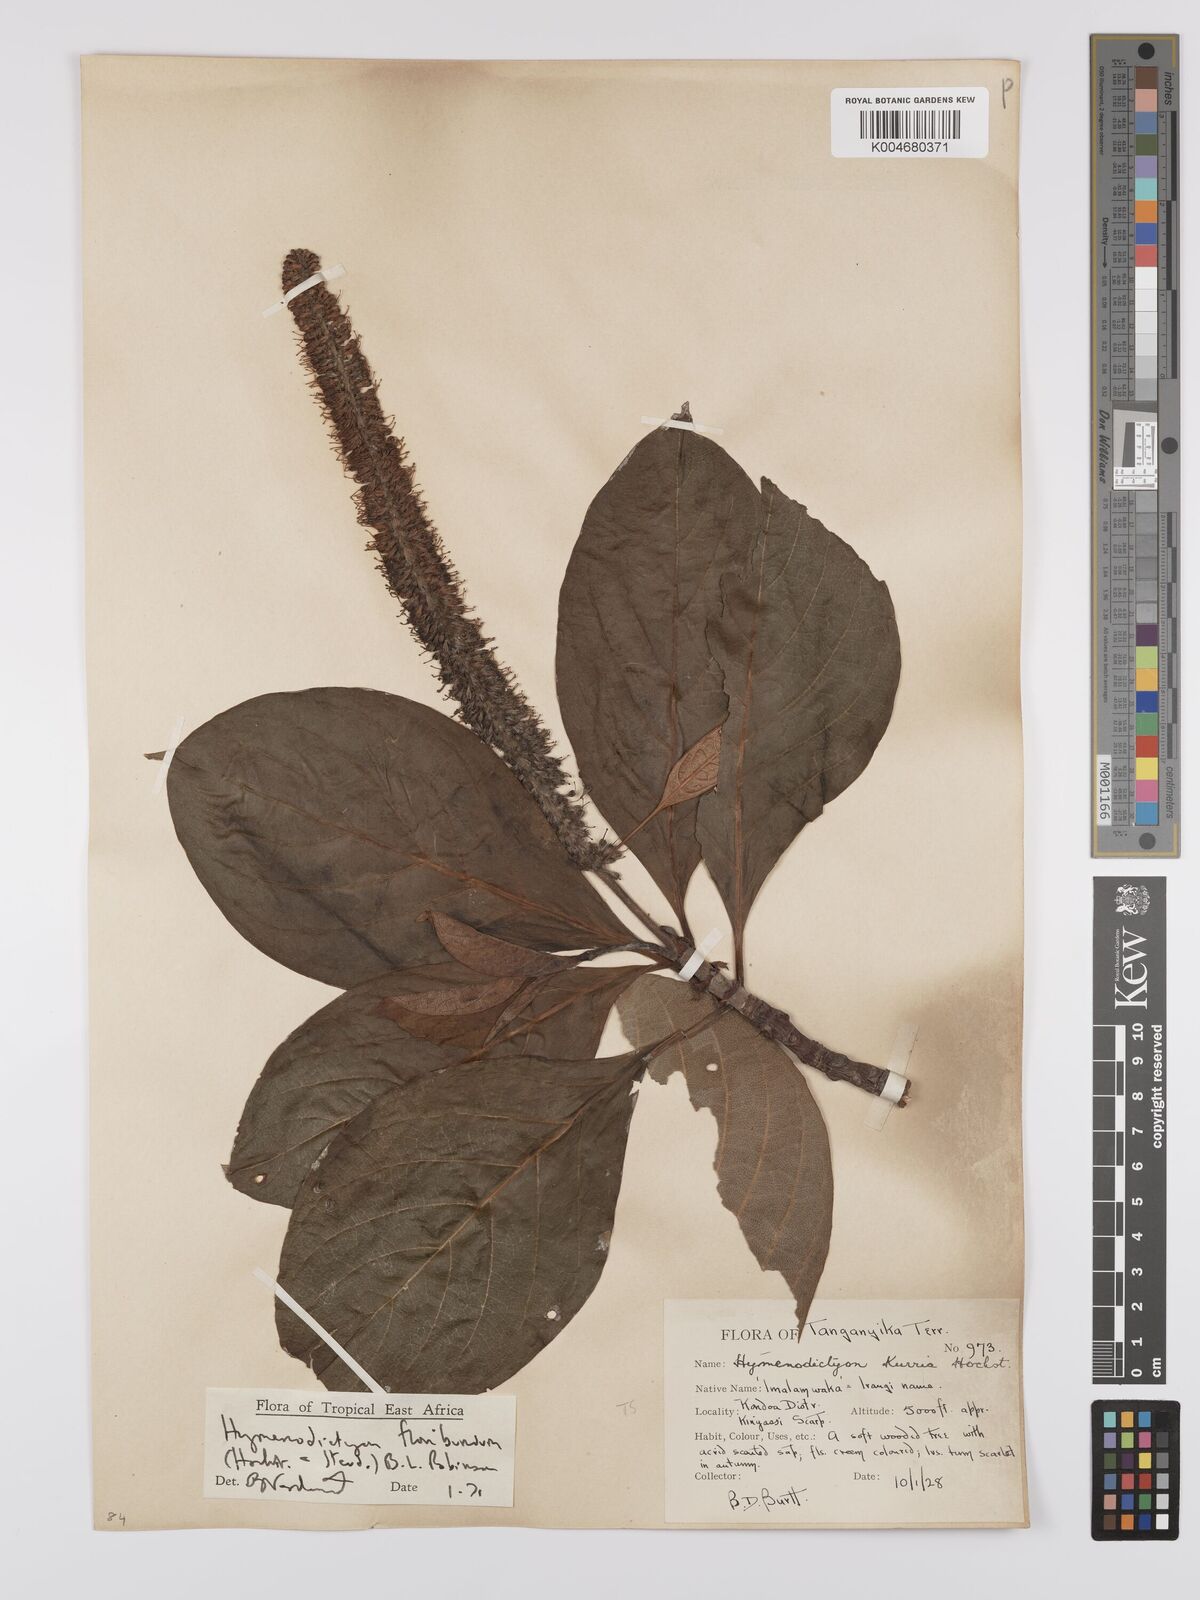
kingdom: Plantae
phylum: Tracheophyta
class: Magnoliopsida
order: Gentianales
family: Rubiaceae
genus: Hymenodictyon
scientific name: Hymenodictyon floribundum
